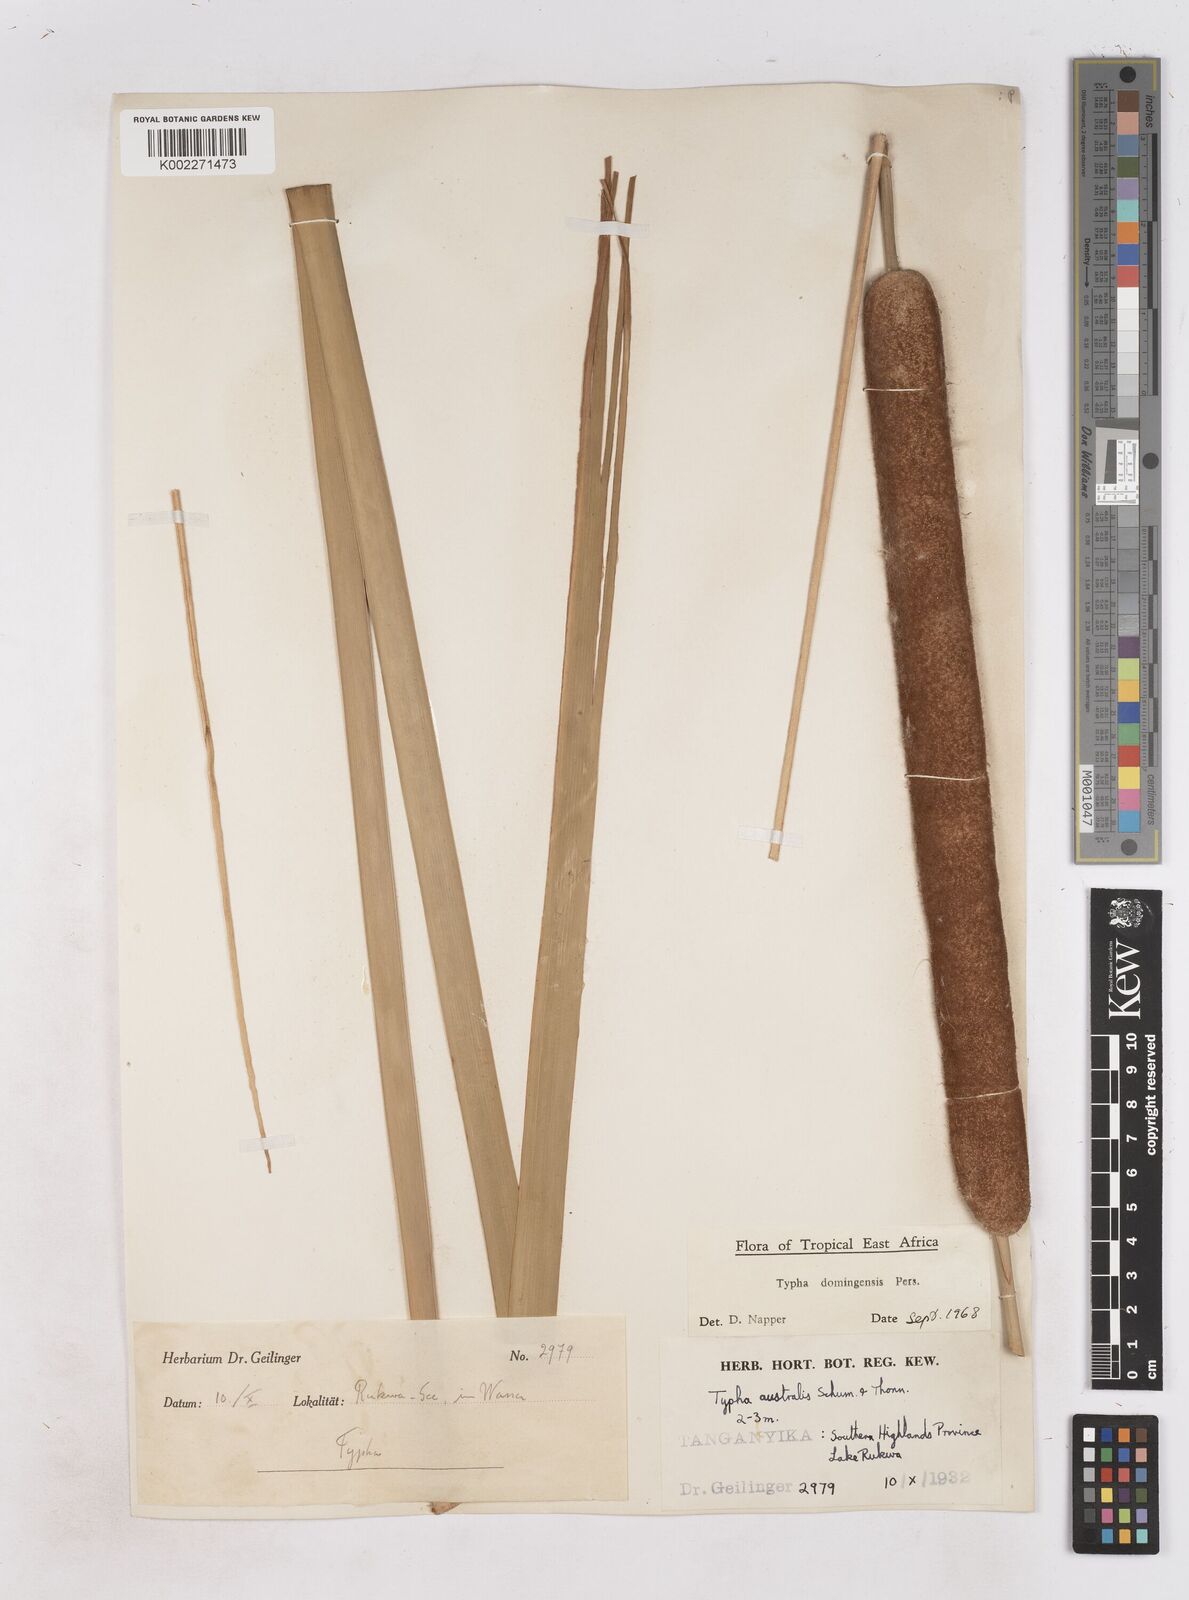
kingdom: Plantae
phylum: Tracheophyta
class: Liliopsida
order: Poales
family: Typhaceae
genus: Typha
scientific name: Typha domingensis
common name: Southern cattail
